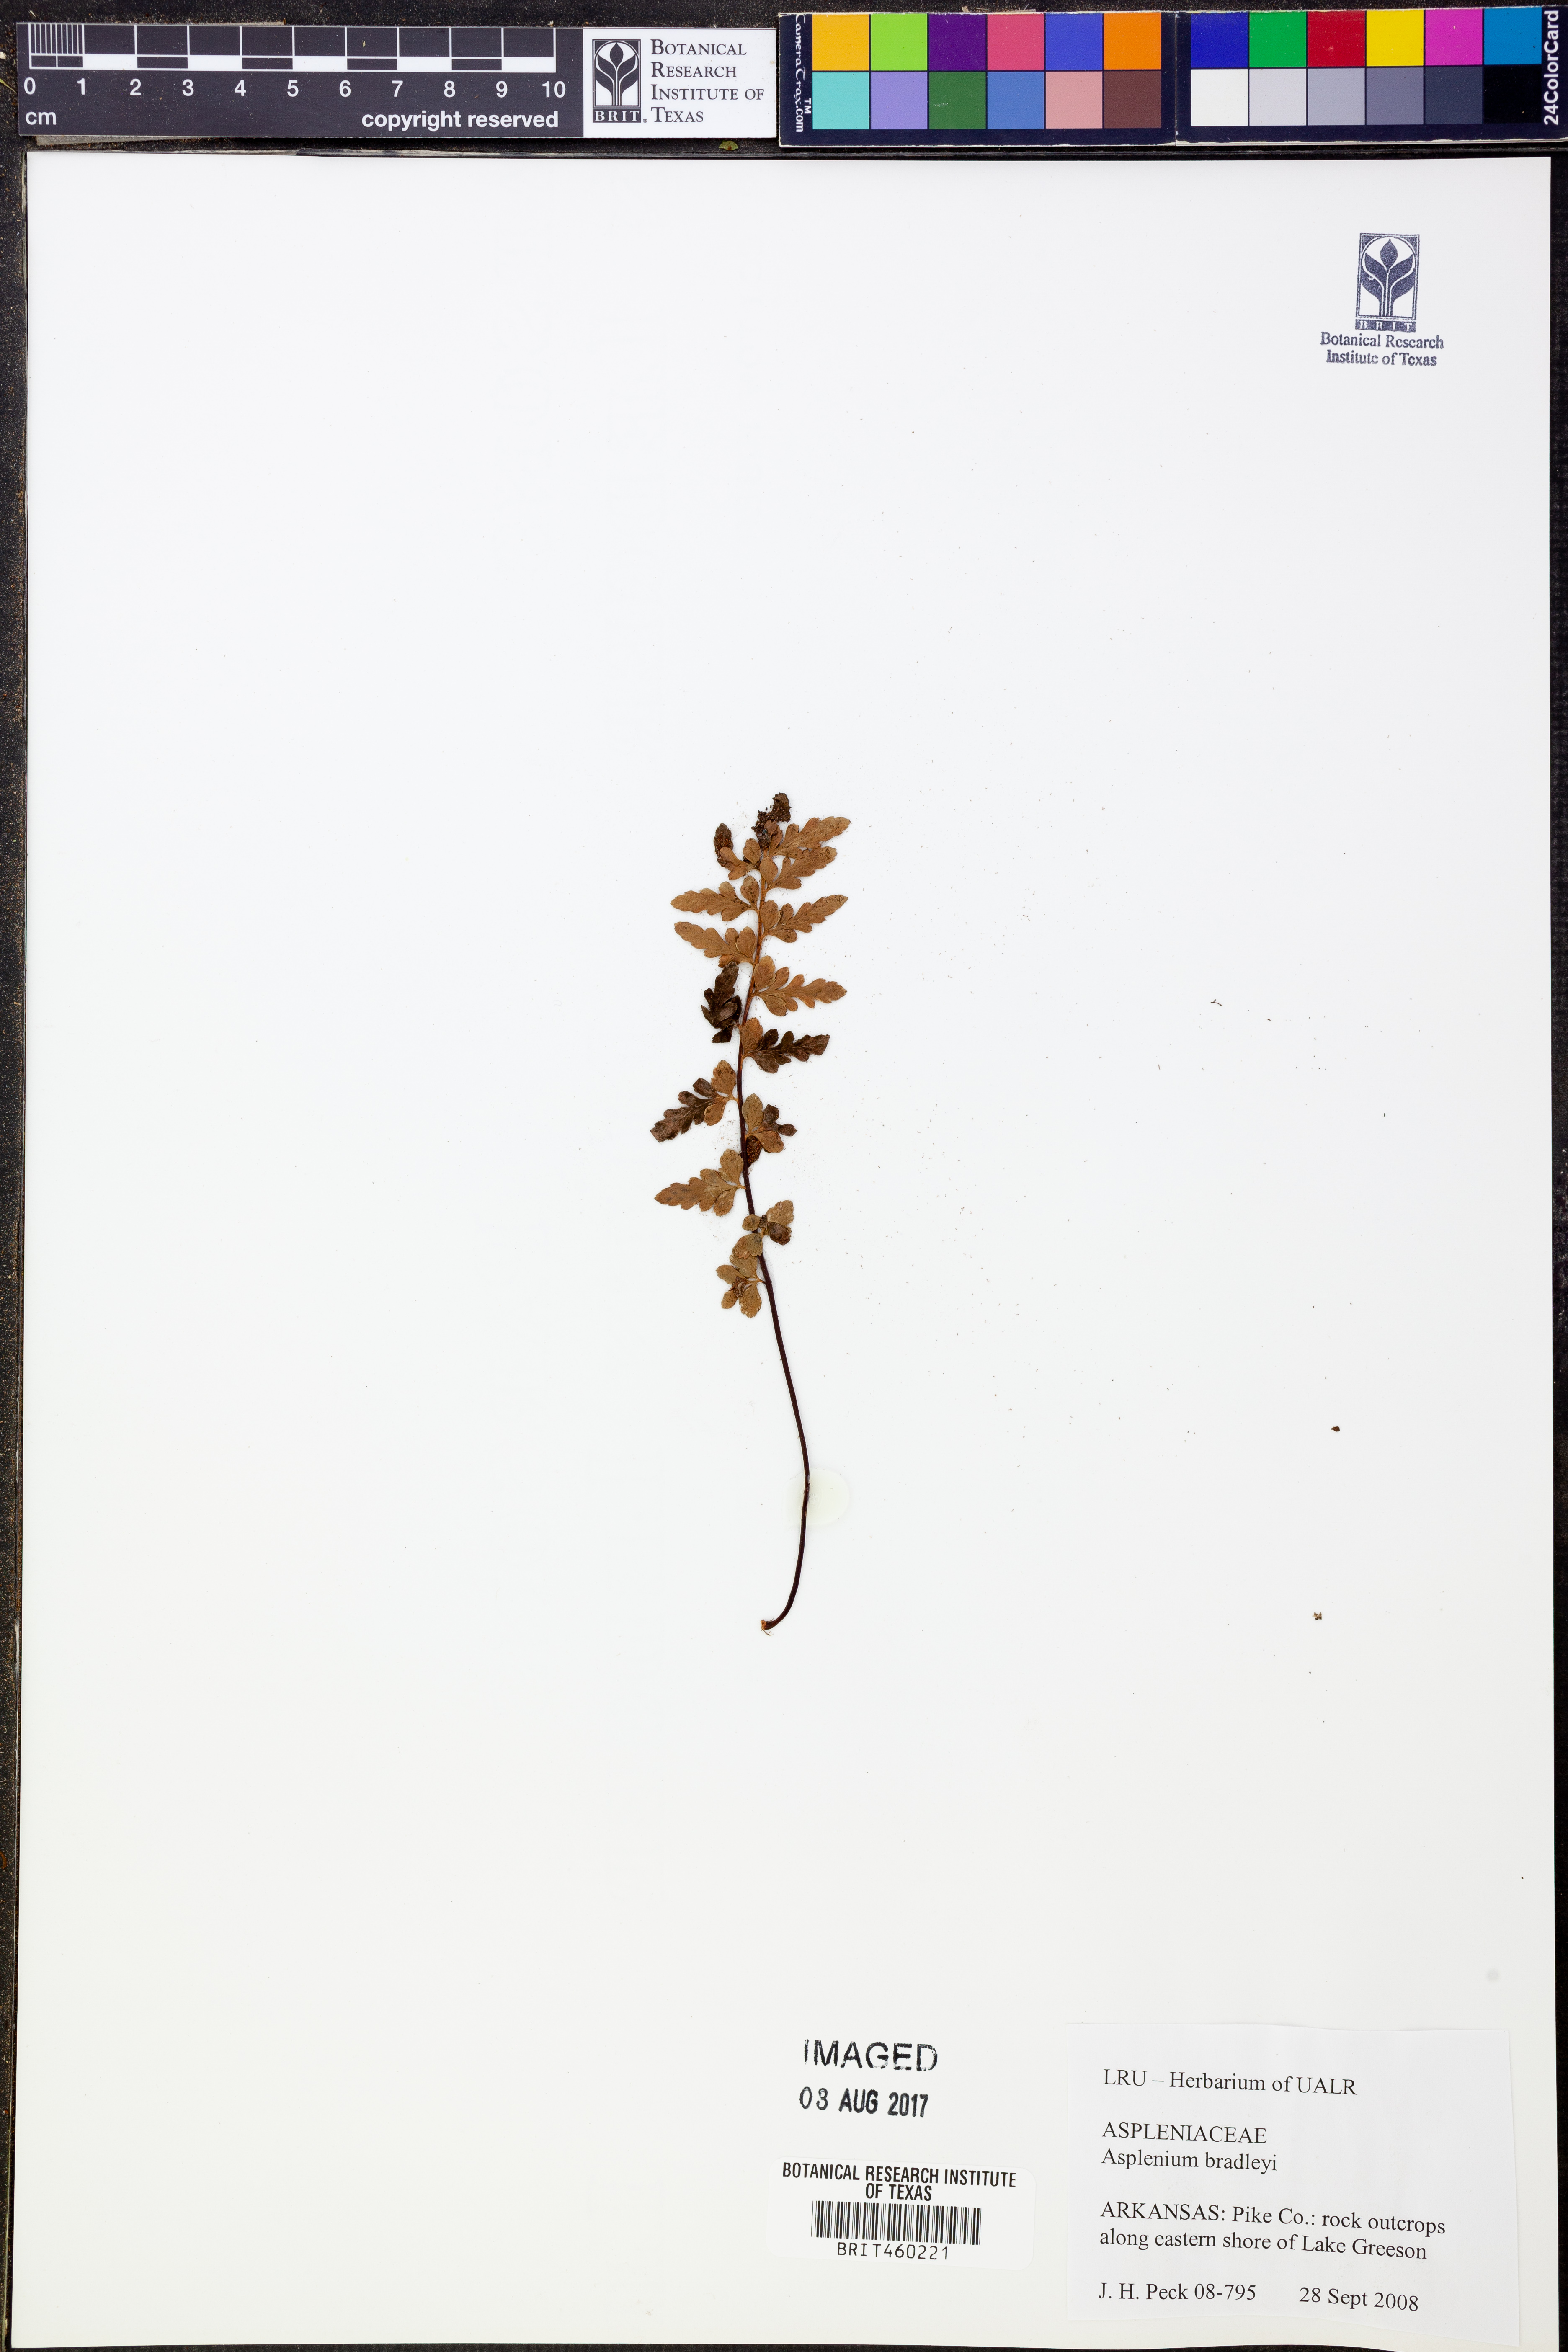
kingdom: Plantae
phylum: Tracheophyta
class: Polypodiopsida
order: Polypodiales
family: Aspleniaceae
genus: Asplenium
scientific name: Asplenium bradleyi
